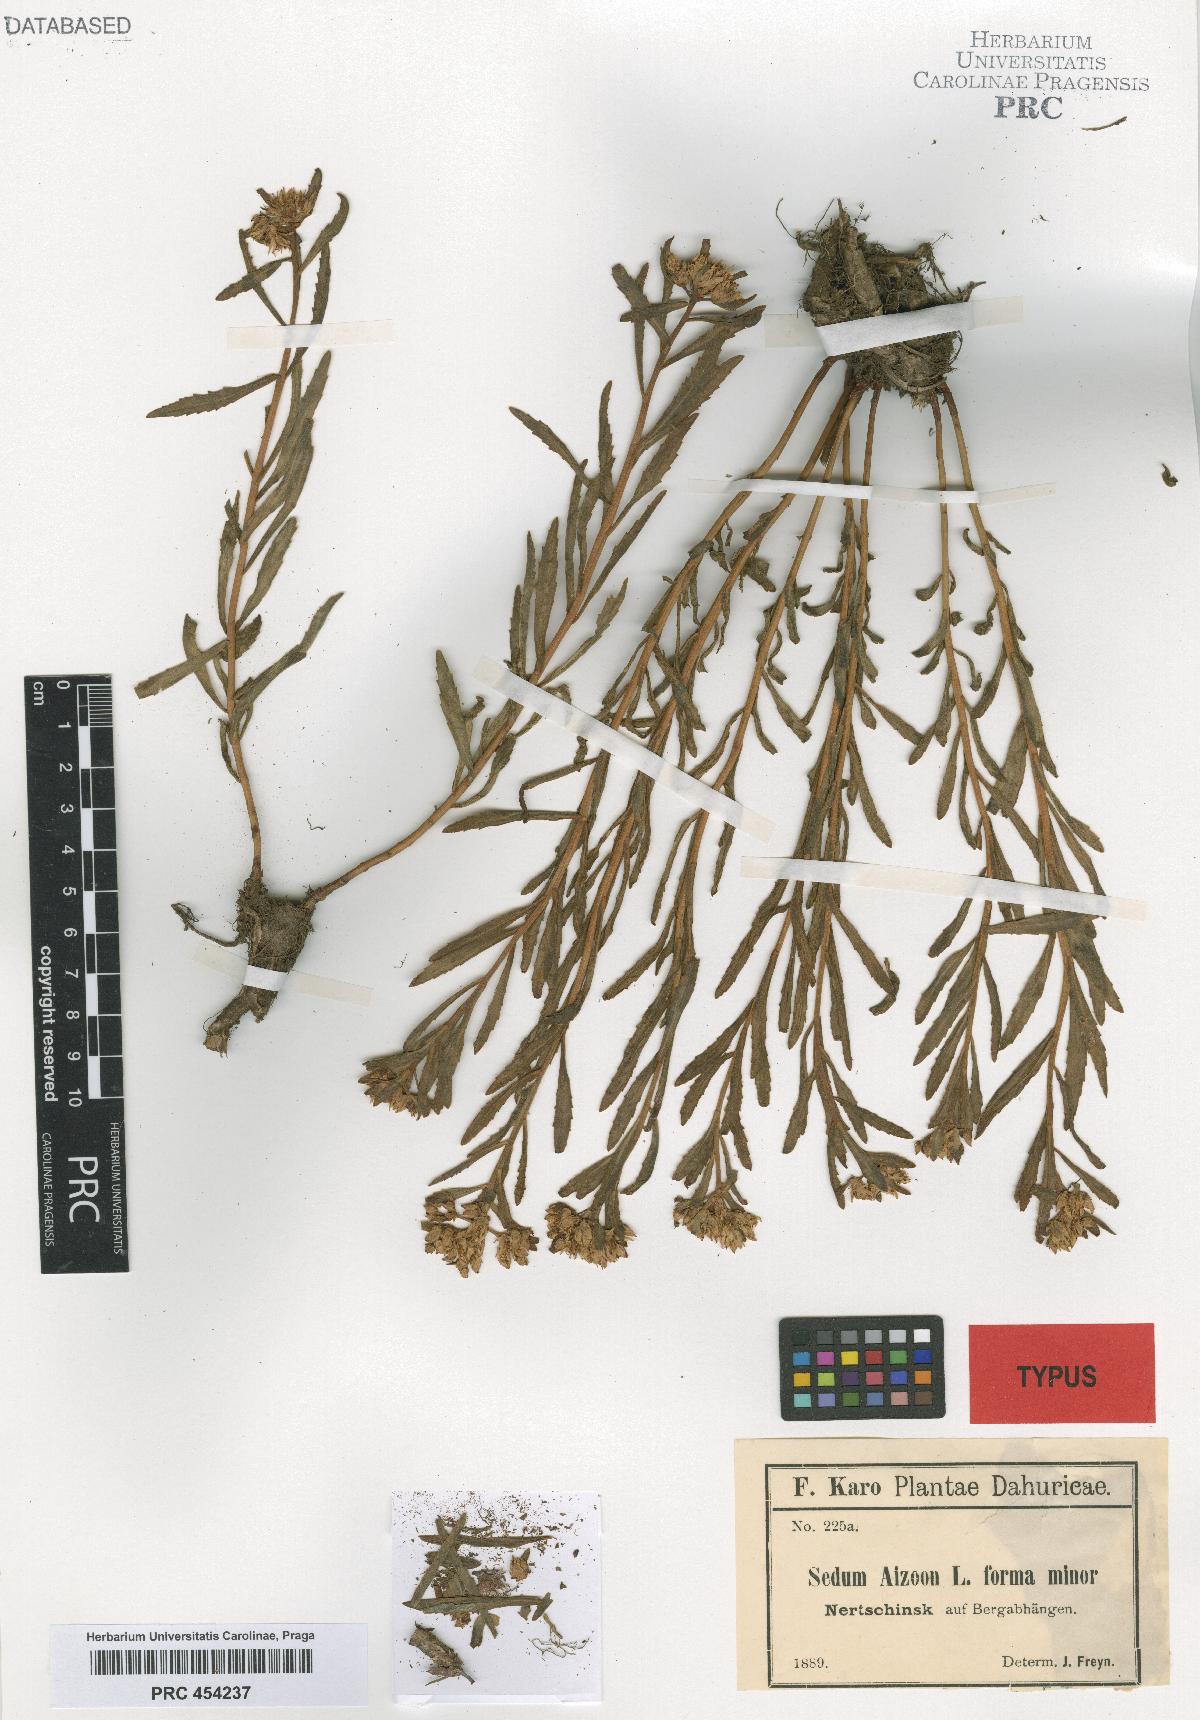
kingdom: Plantae
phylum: Tracheophyta
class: Magnoliopsida
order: Saxifragales
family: Crassulaceae
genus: Sedum
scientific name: Sedum aizoon
